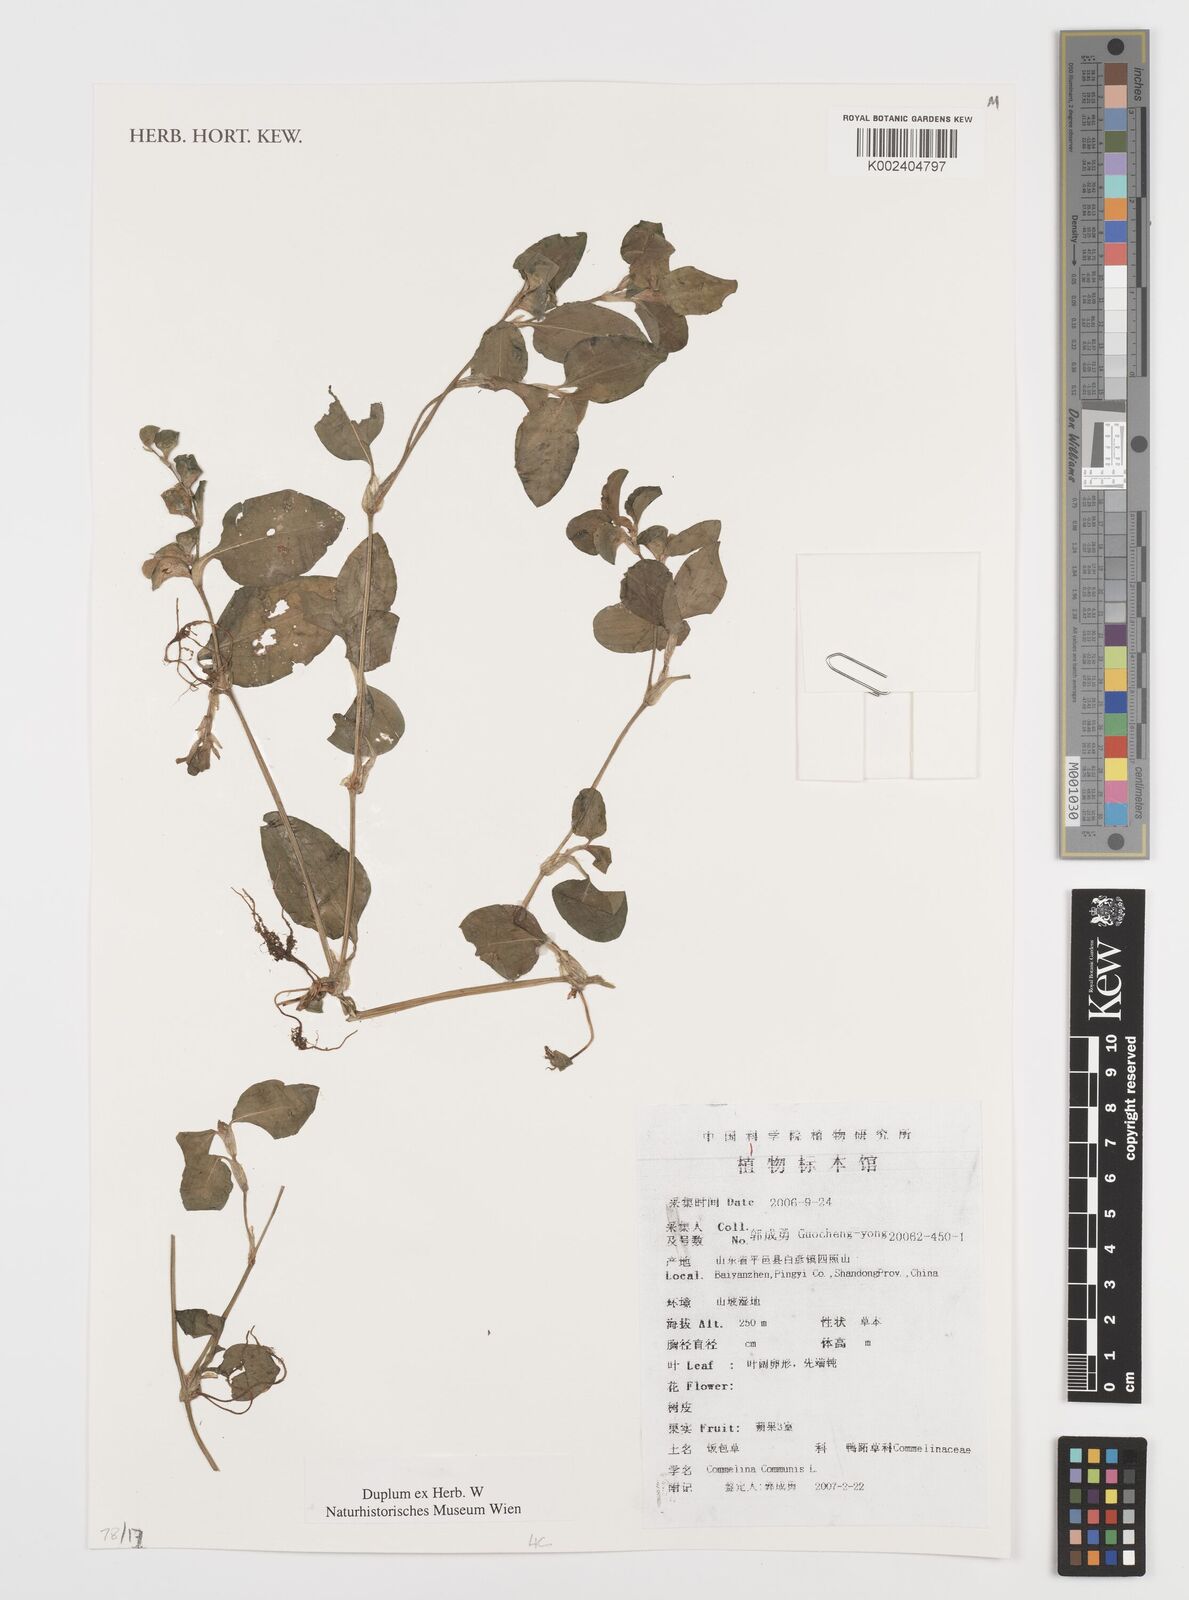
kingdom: Plantae
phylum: Tracheophyta
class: Liliopsida
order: Commelinales
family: Commelinaceae
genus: Commelina
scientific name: Commelina communis
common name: Asiatic dayflower
